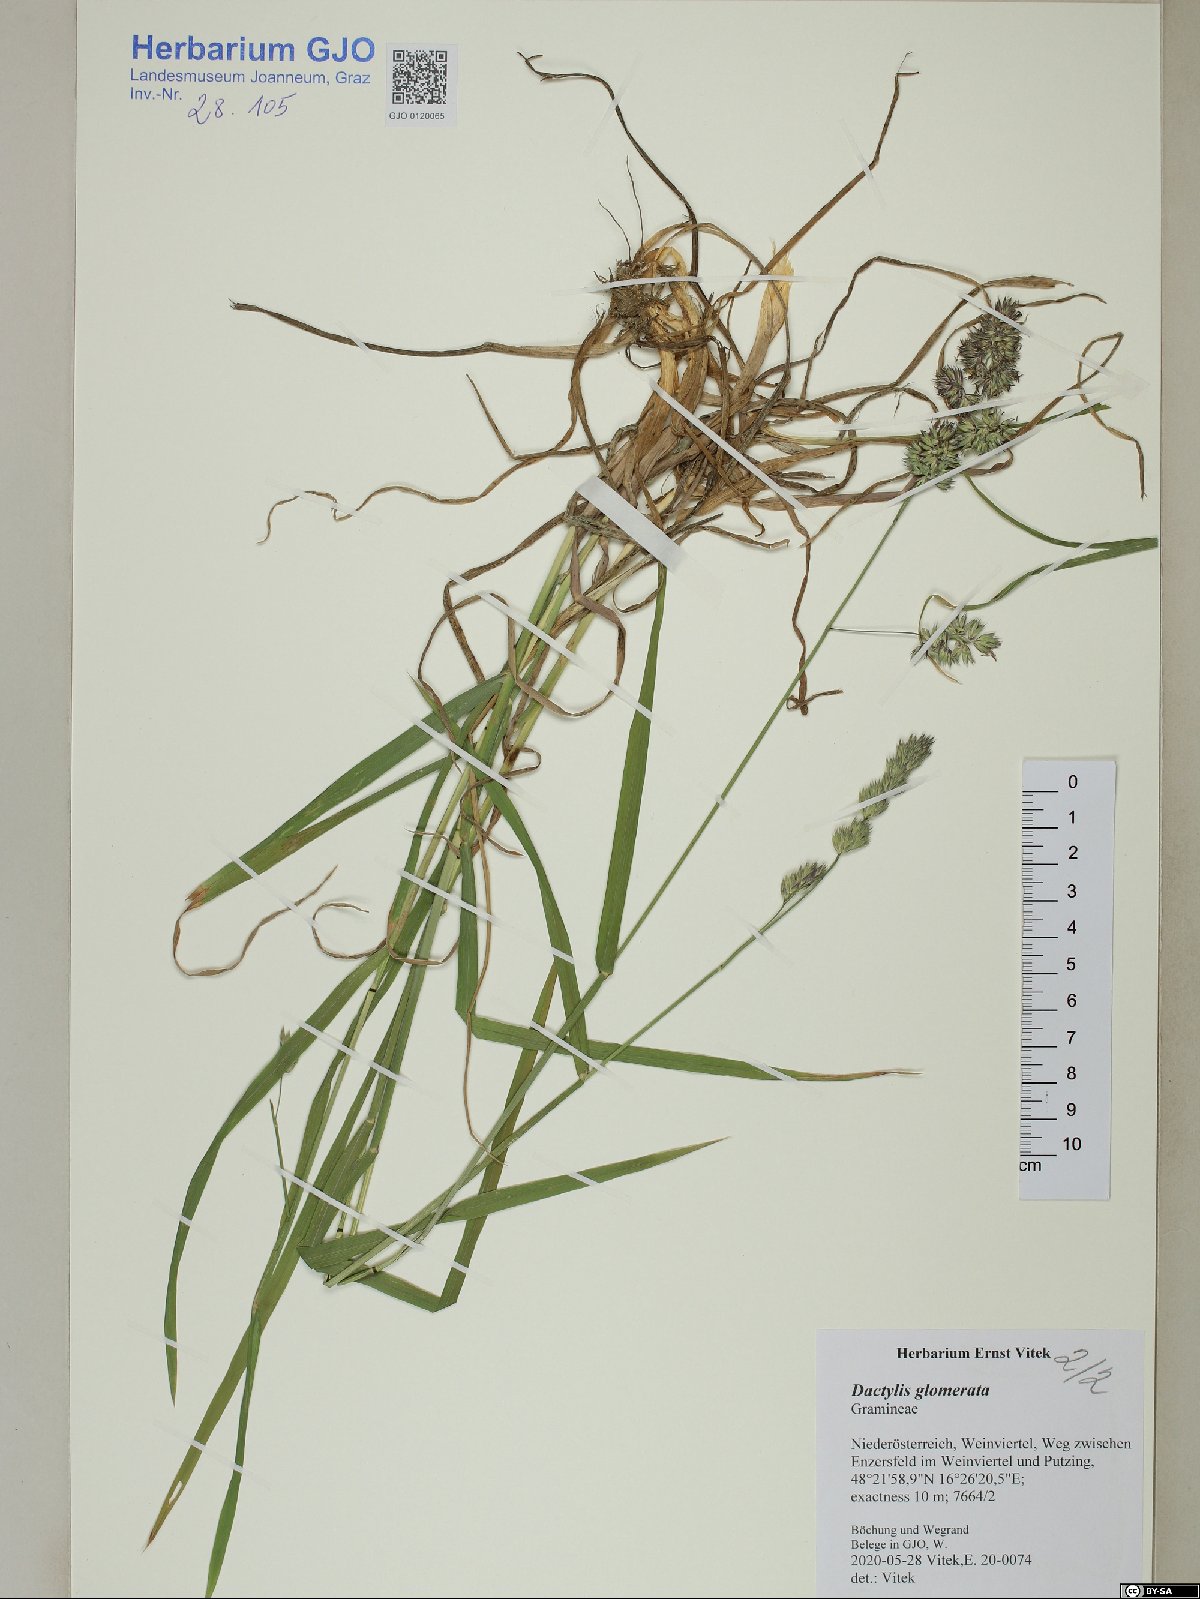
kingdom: Plantae
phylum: Tracheophyta
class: Liliopsida
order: Poales
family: Poaceae
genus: Dactylis
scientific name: Dactylis glomerata
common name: Orchardgrass
